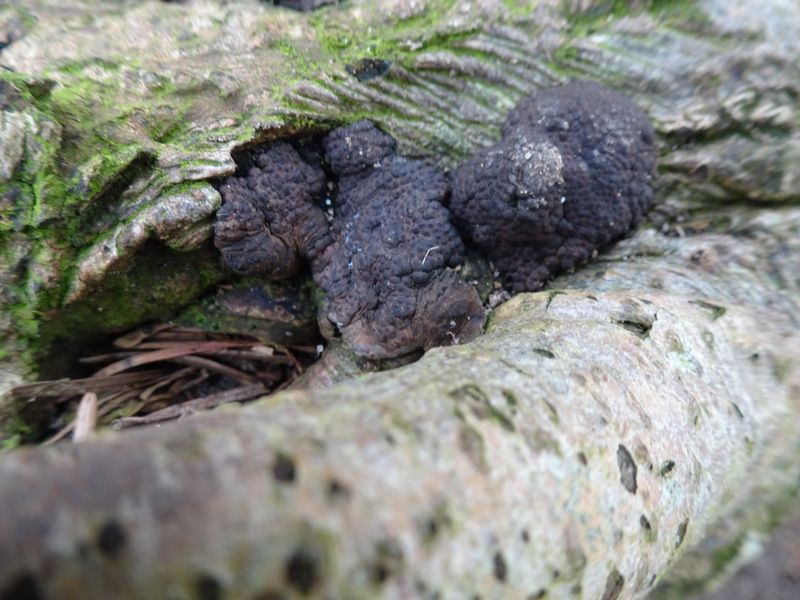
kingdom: Fungi
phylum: Ascomycota
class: Sordariomycetes
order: Xylariales
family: Xylariaceae
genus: Kretzschmaria
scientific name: Kretzschmaria deusta
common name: stor kulsvamp
